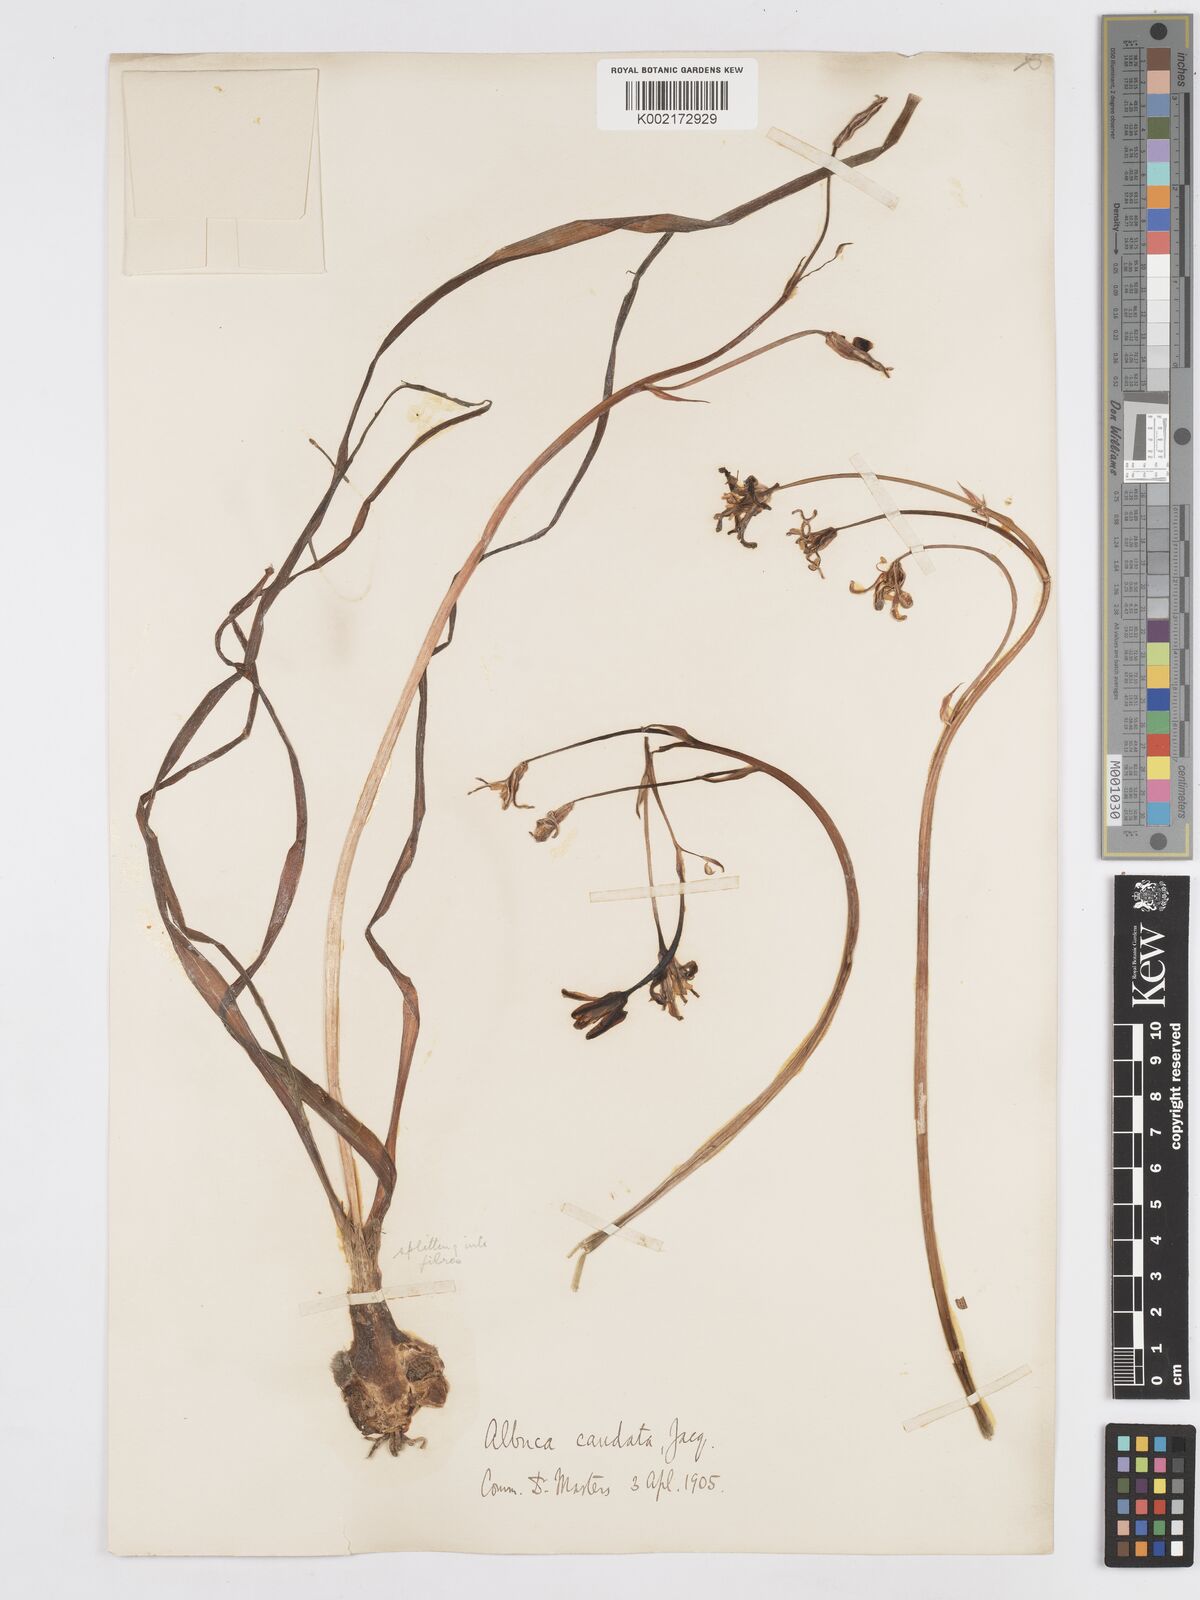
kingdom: Plantae
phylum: Tracheophyta
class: Liliopsida
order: Asparagales
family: Asparagaceae
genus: Albuca
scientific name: Albuca caudata
